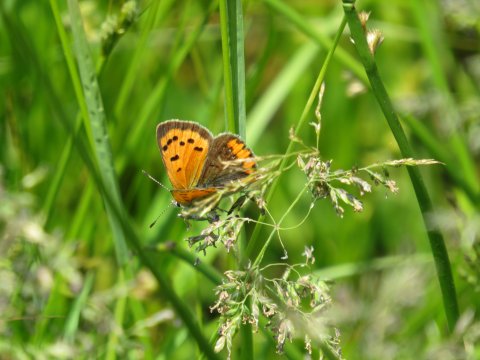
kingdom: Animalia
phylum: Arthropoda
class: Insecta
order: Lepidoptera
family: Lycaenidae
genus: Lycaena
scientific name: Lycaena phlaeas
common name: American Copper
